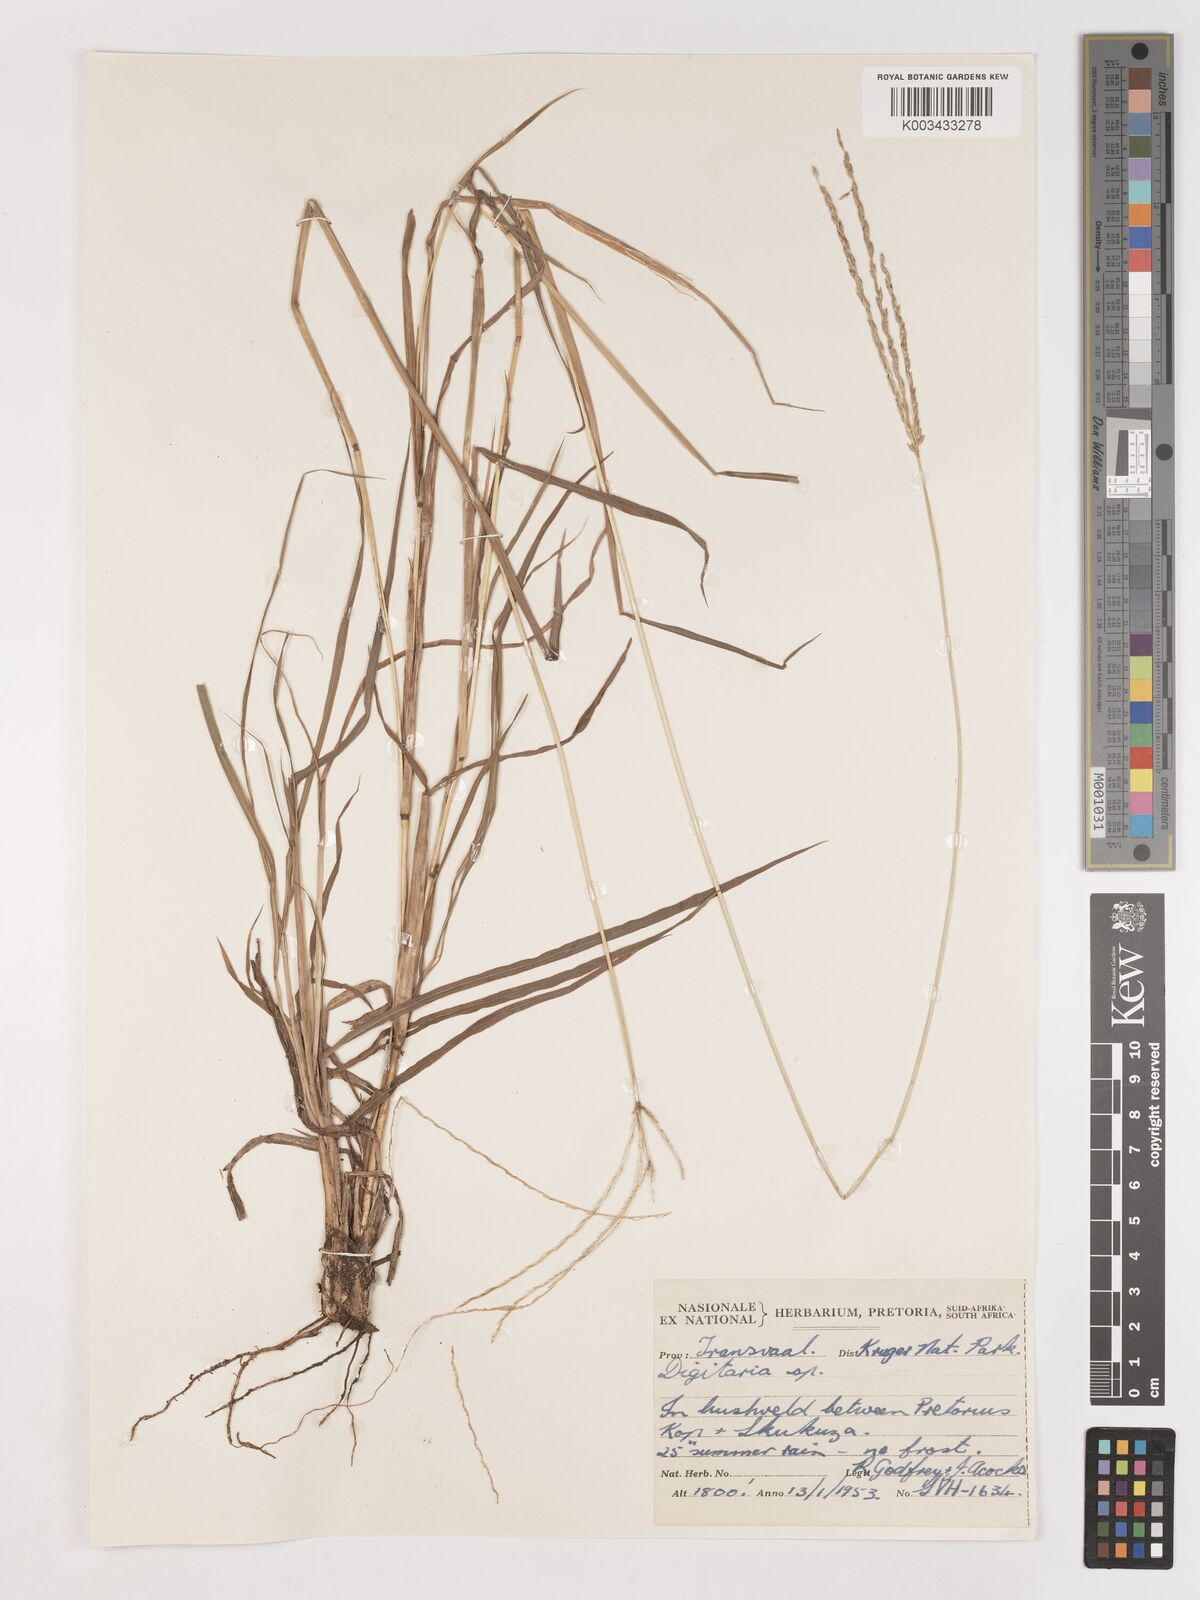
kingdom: Plantae
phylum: Tracheophyta
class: Liliopsida
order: Poales
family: Poaceae
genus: Digitaria
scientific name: Digitaria eriantha
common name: Digitgrass
